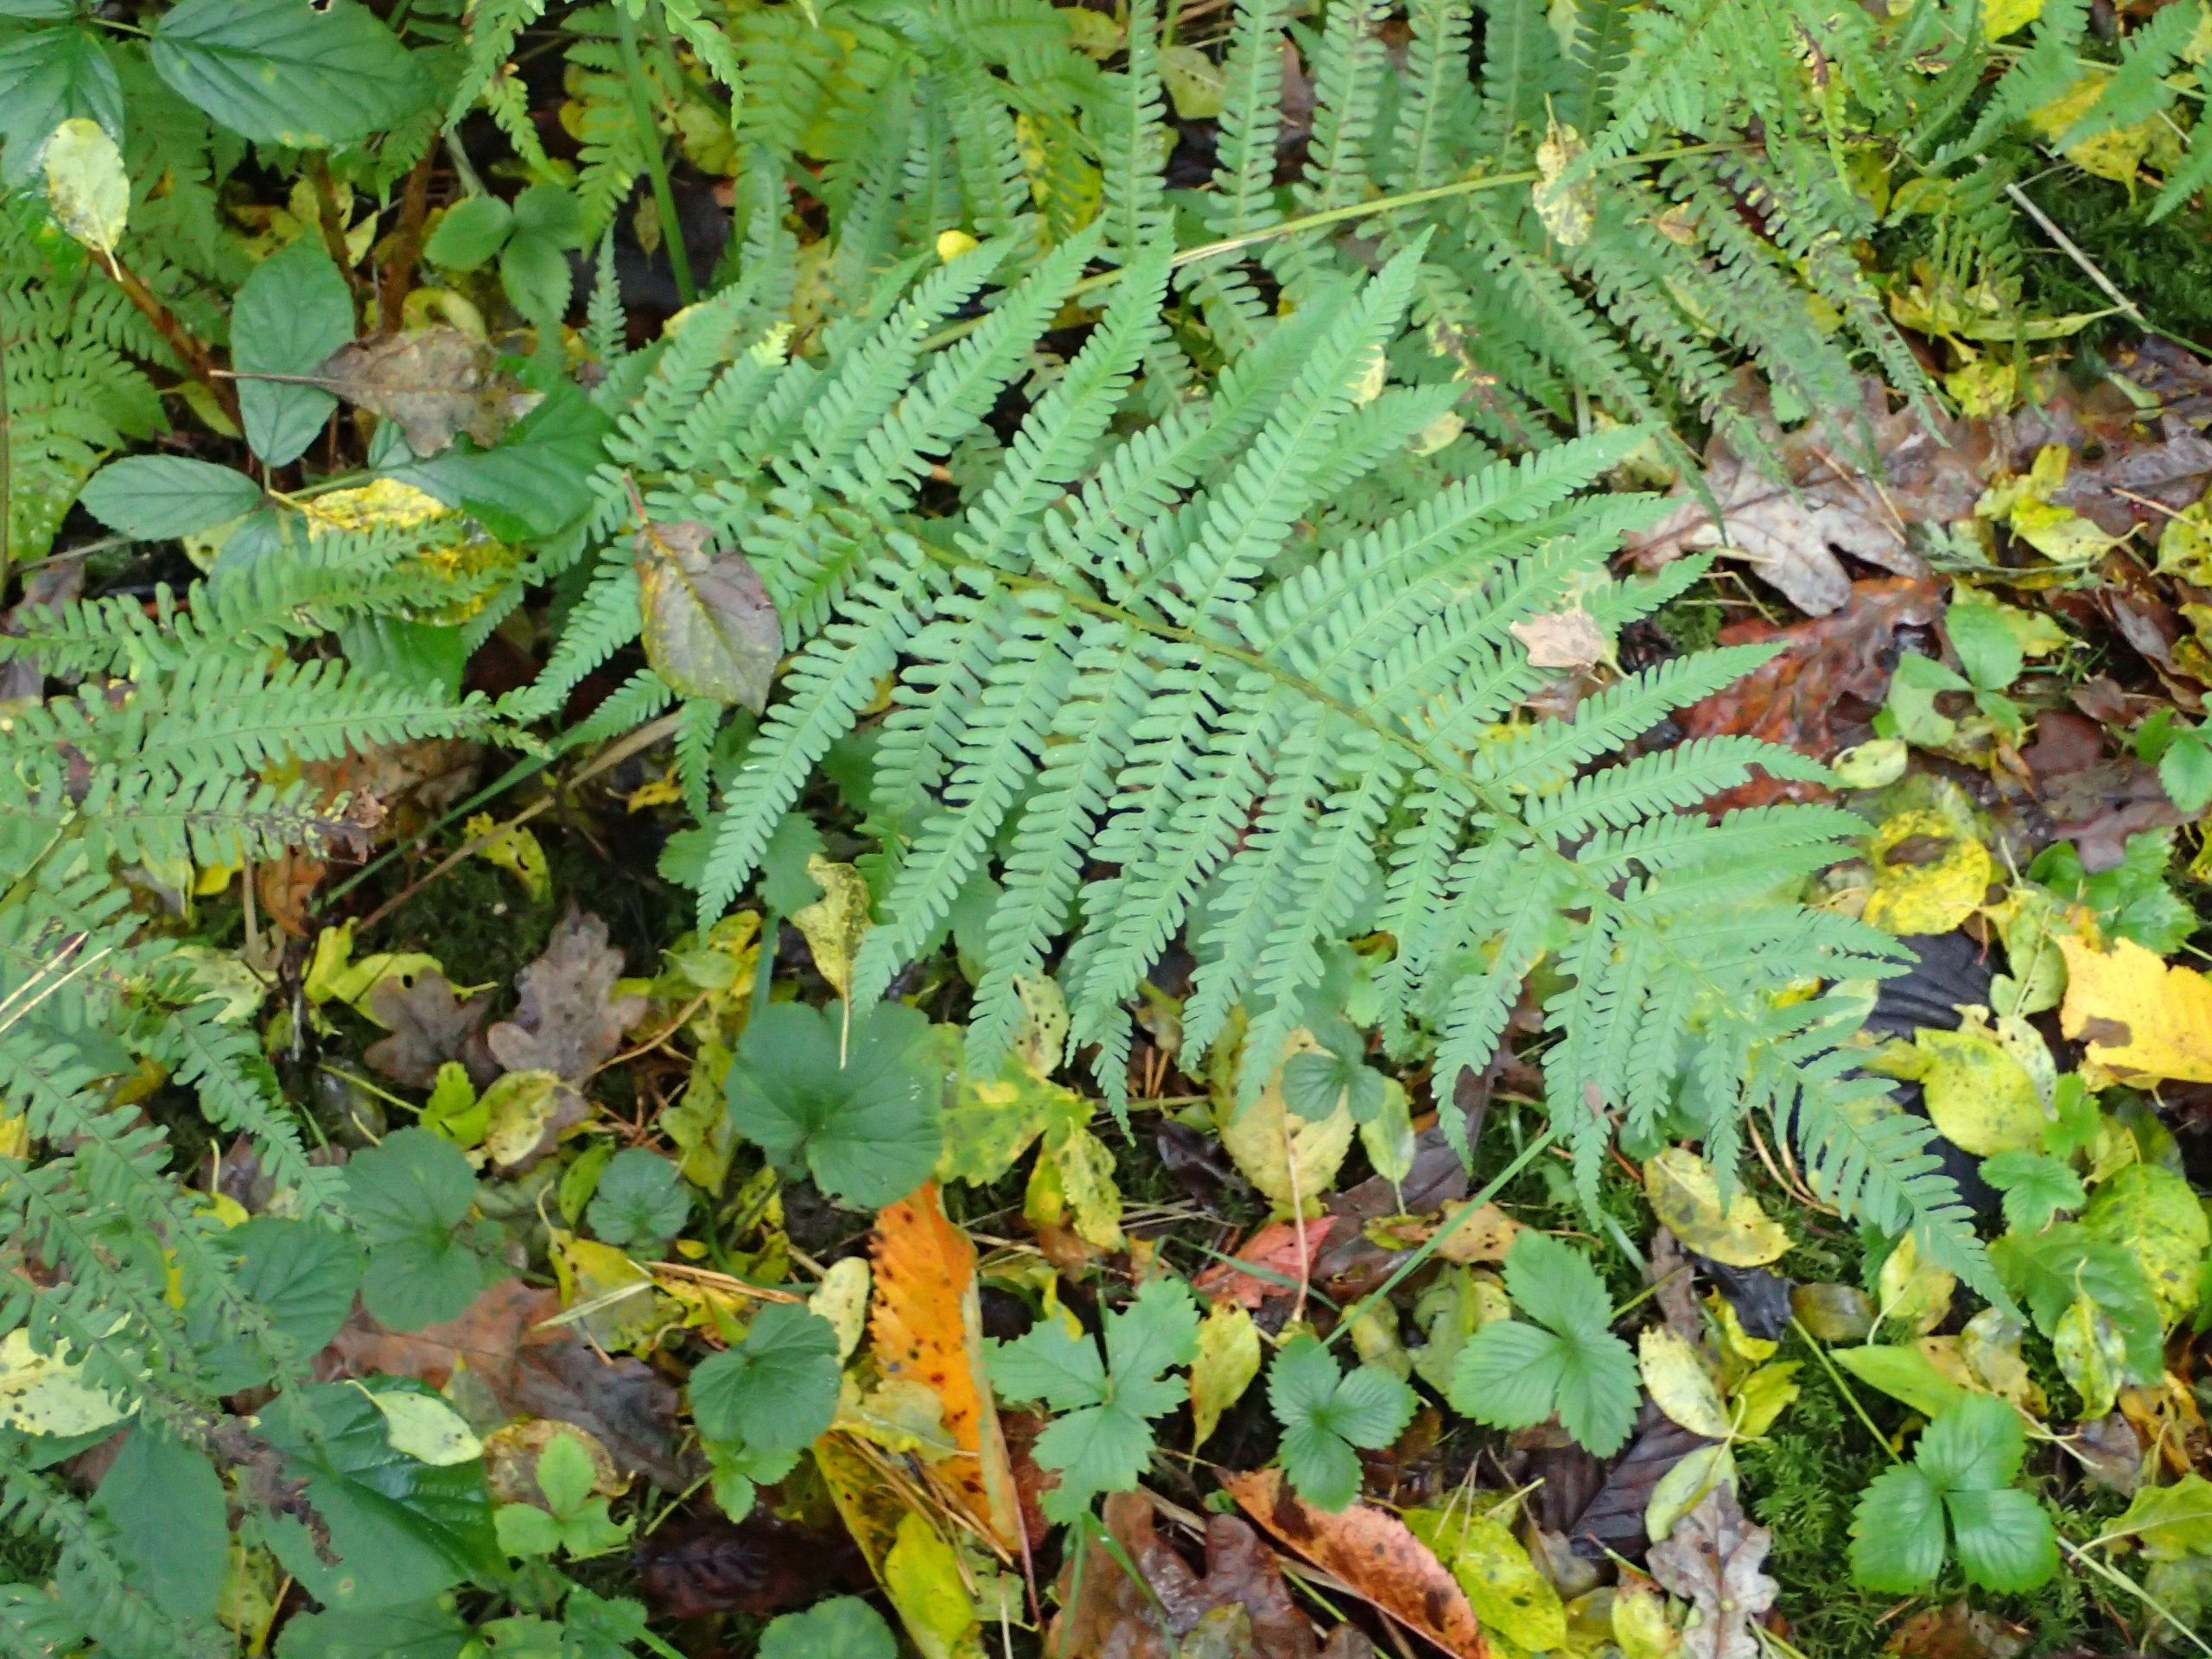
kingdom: Plantae
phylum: Tracheophyta
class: Polypodiopsida
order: Polypodiales
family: Dryopteridaceae
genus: Dryopteris
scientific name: Dryopteris filix-mas
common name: Almindelig mangeløv
